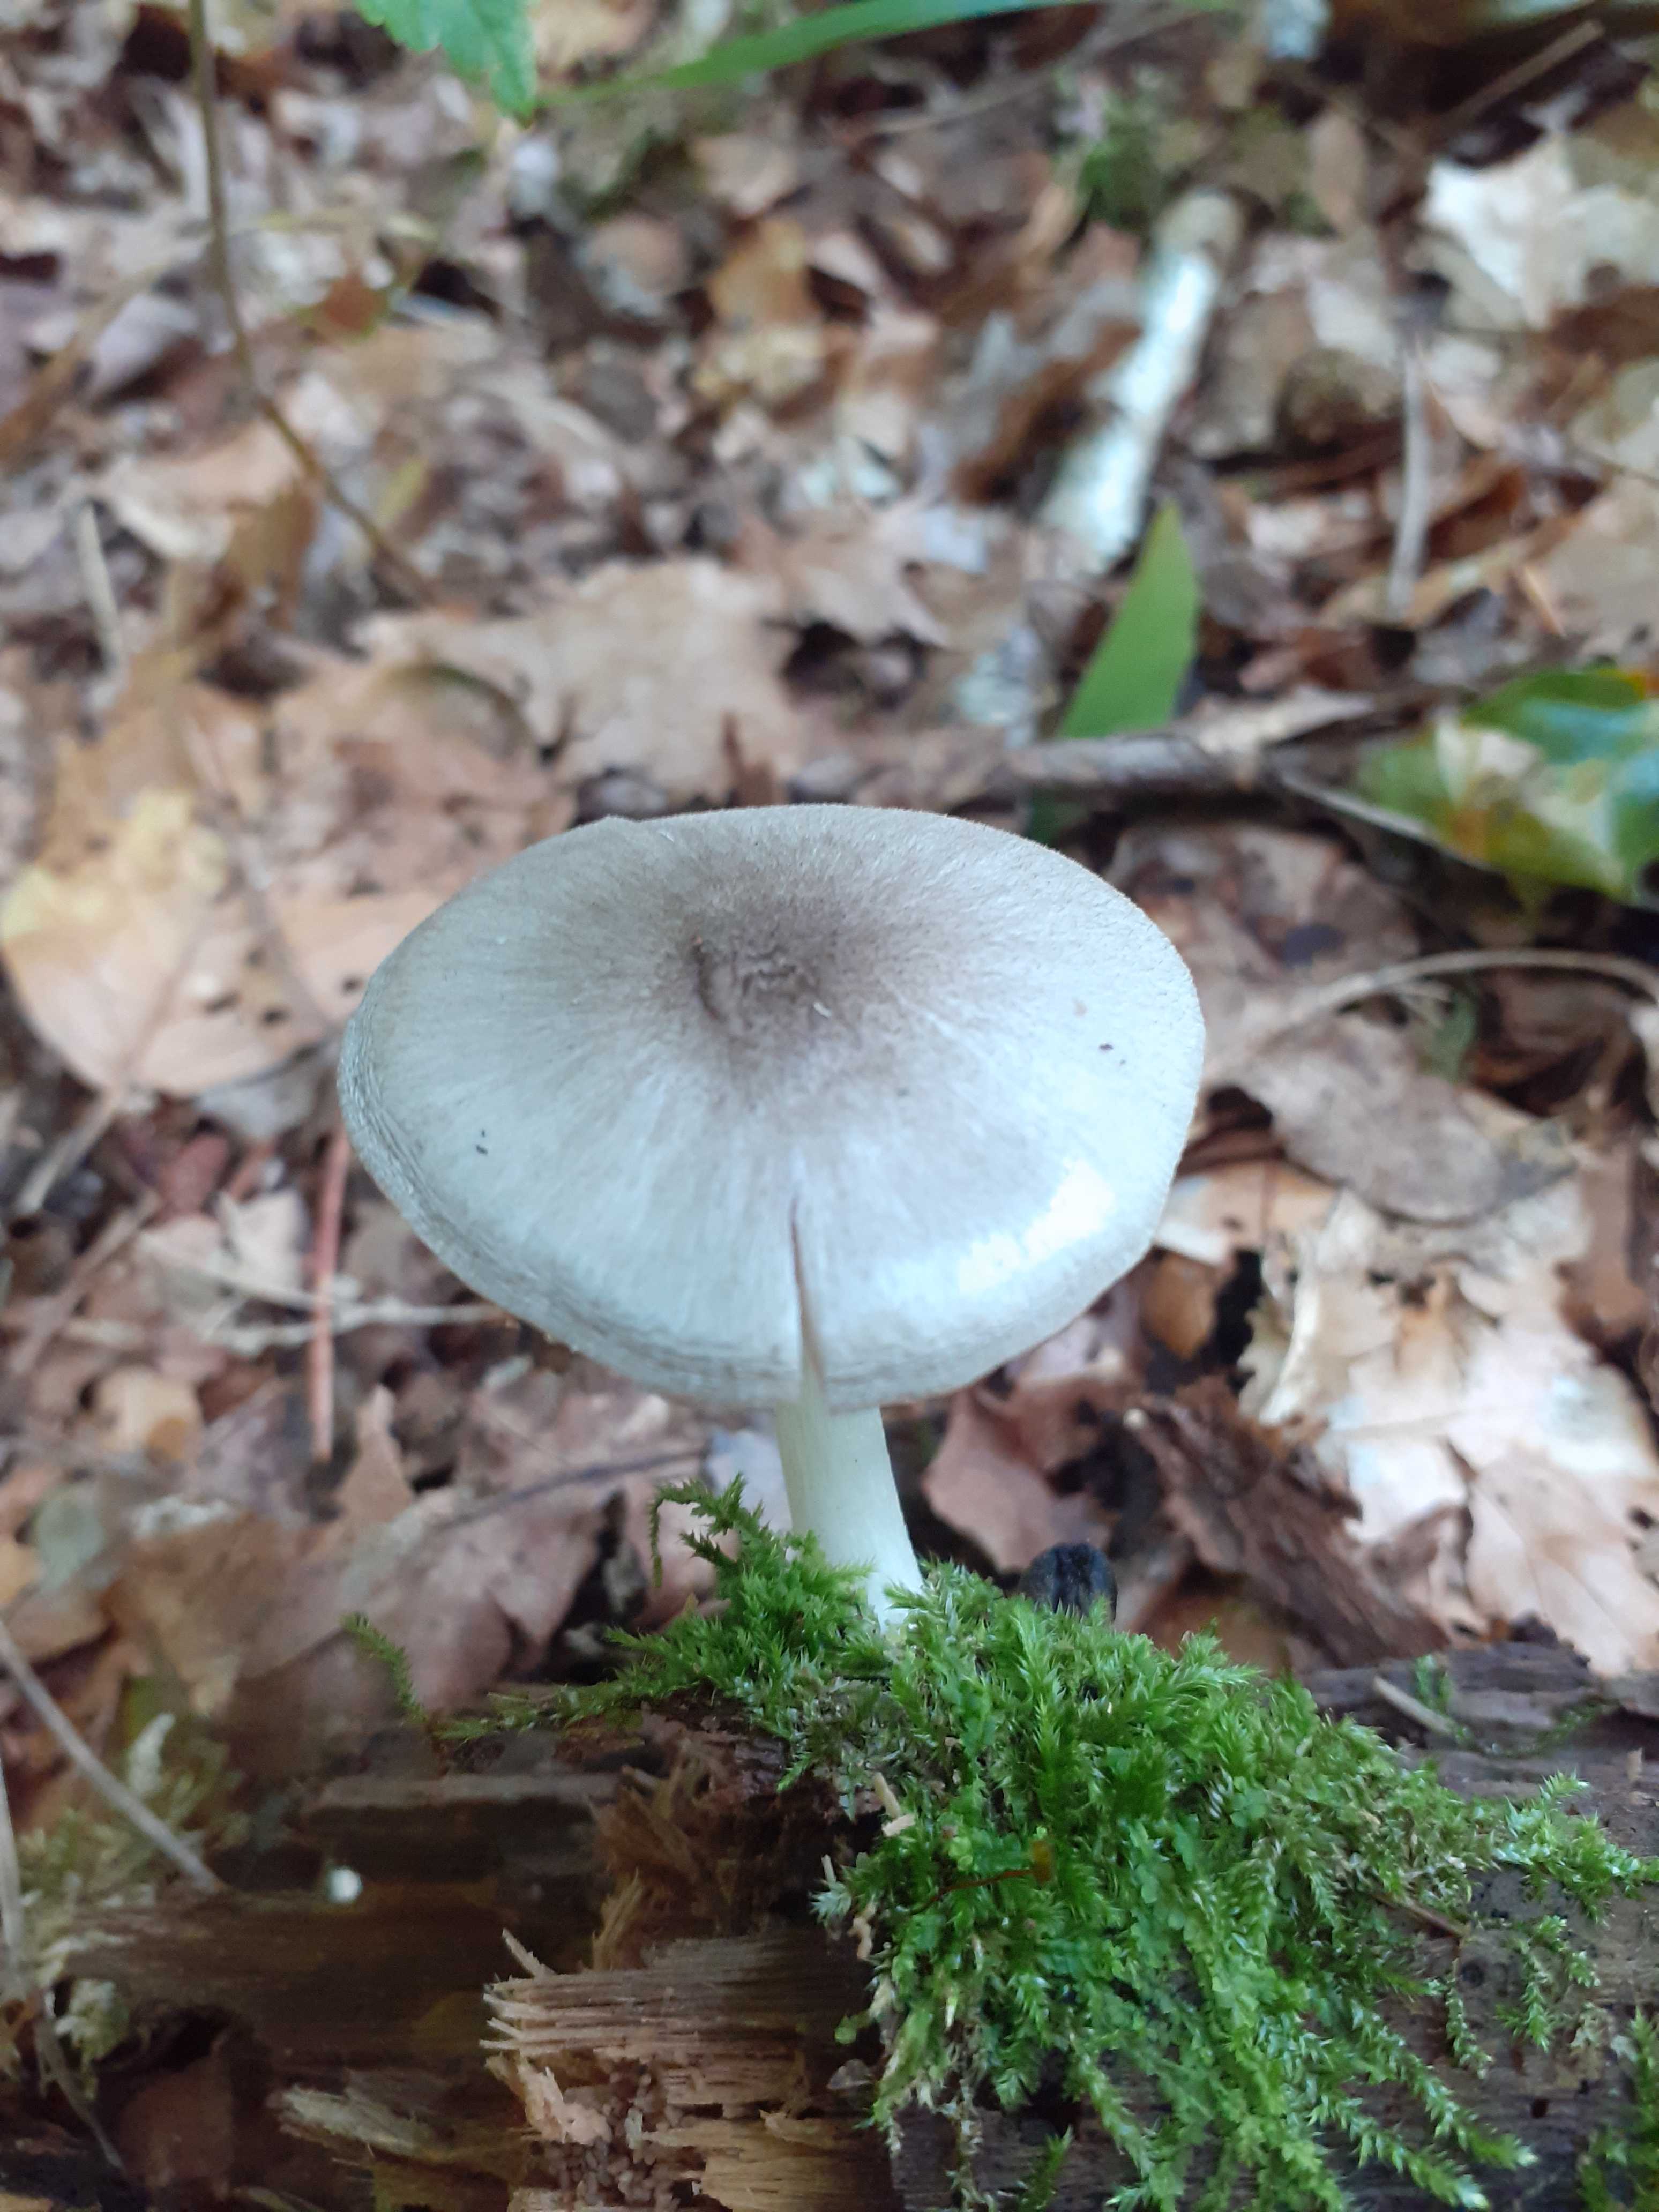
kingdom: Fungi
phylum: Basidiomycota
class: Agaricomycetes
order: Agaricales
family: Pluteaceae
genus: Pluteus
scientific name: Pluteus salicinus
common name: stiv skærmhat
